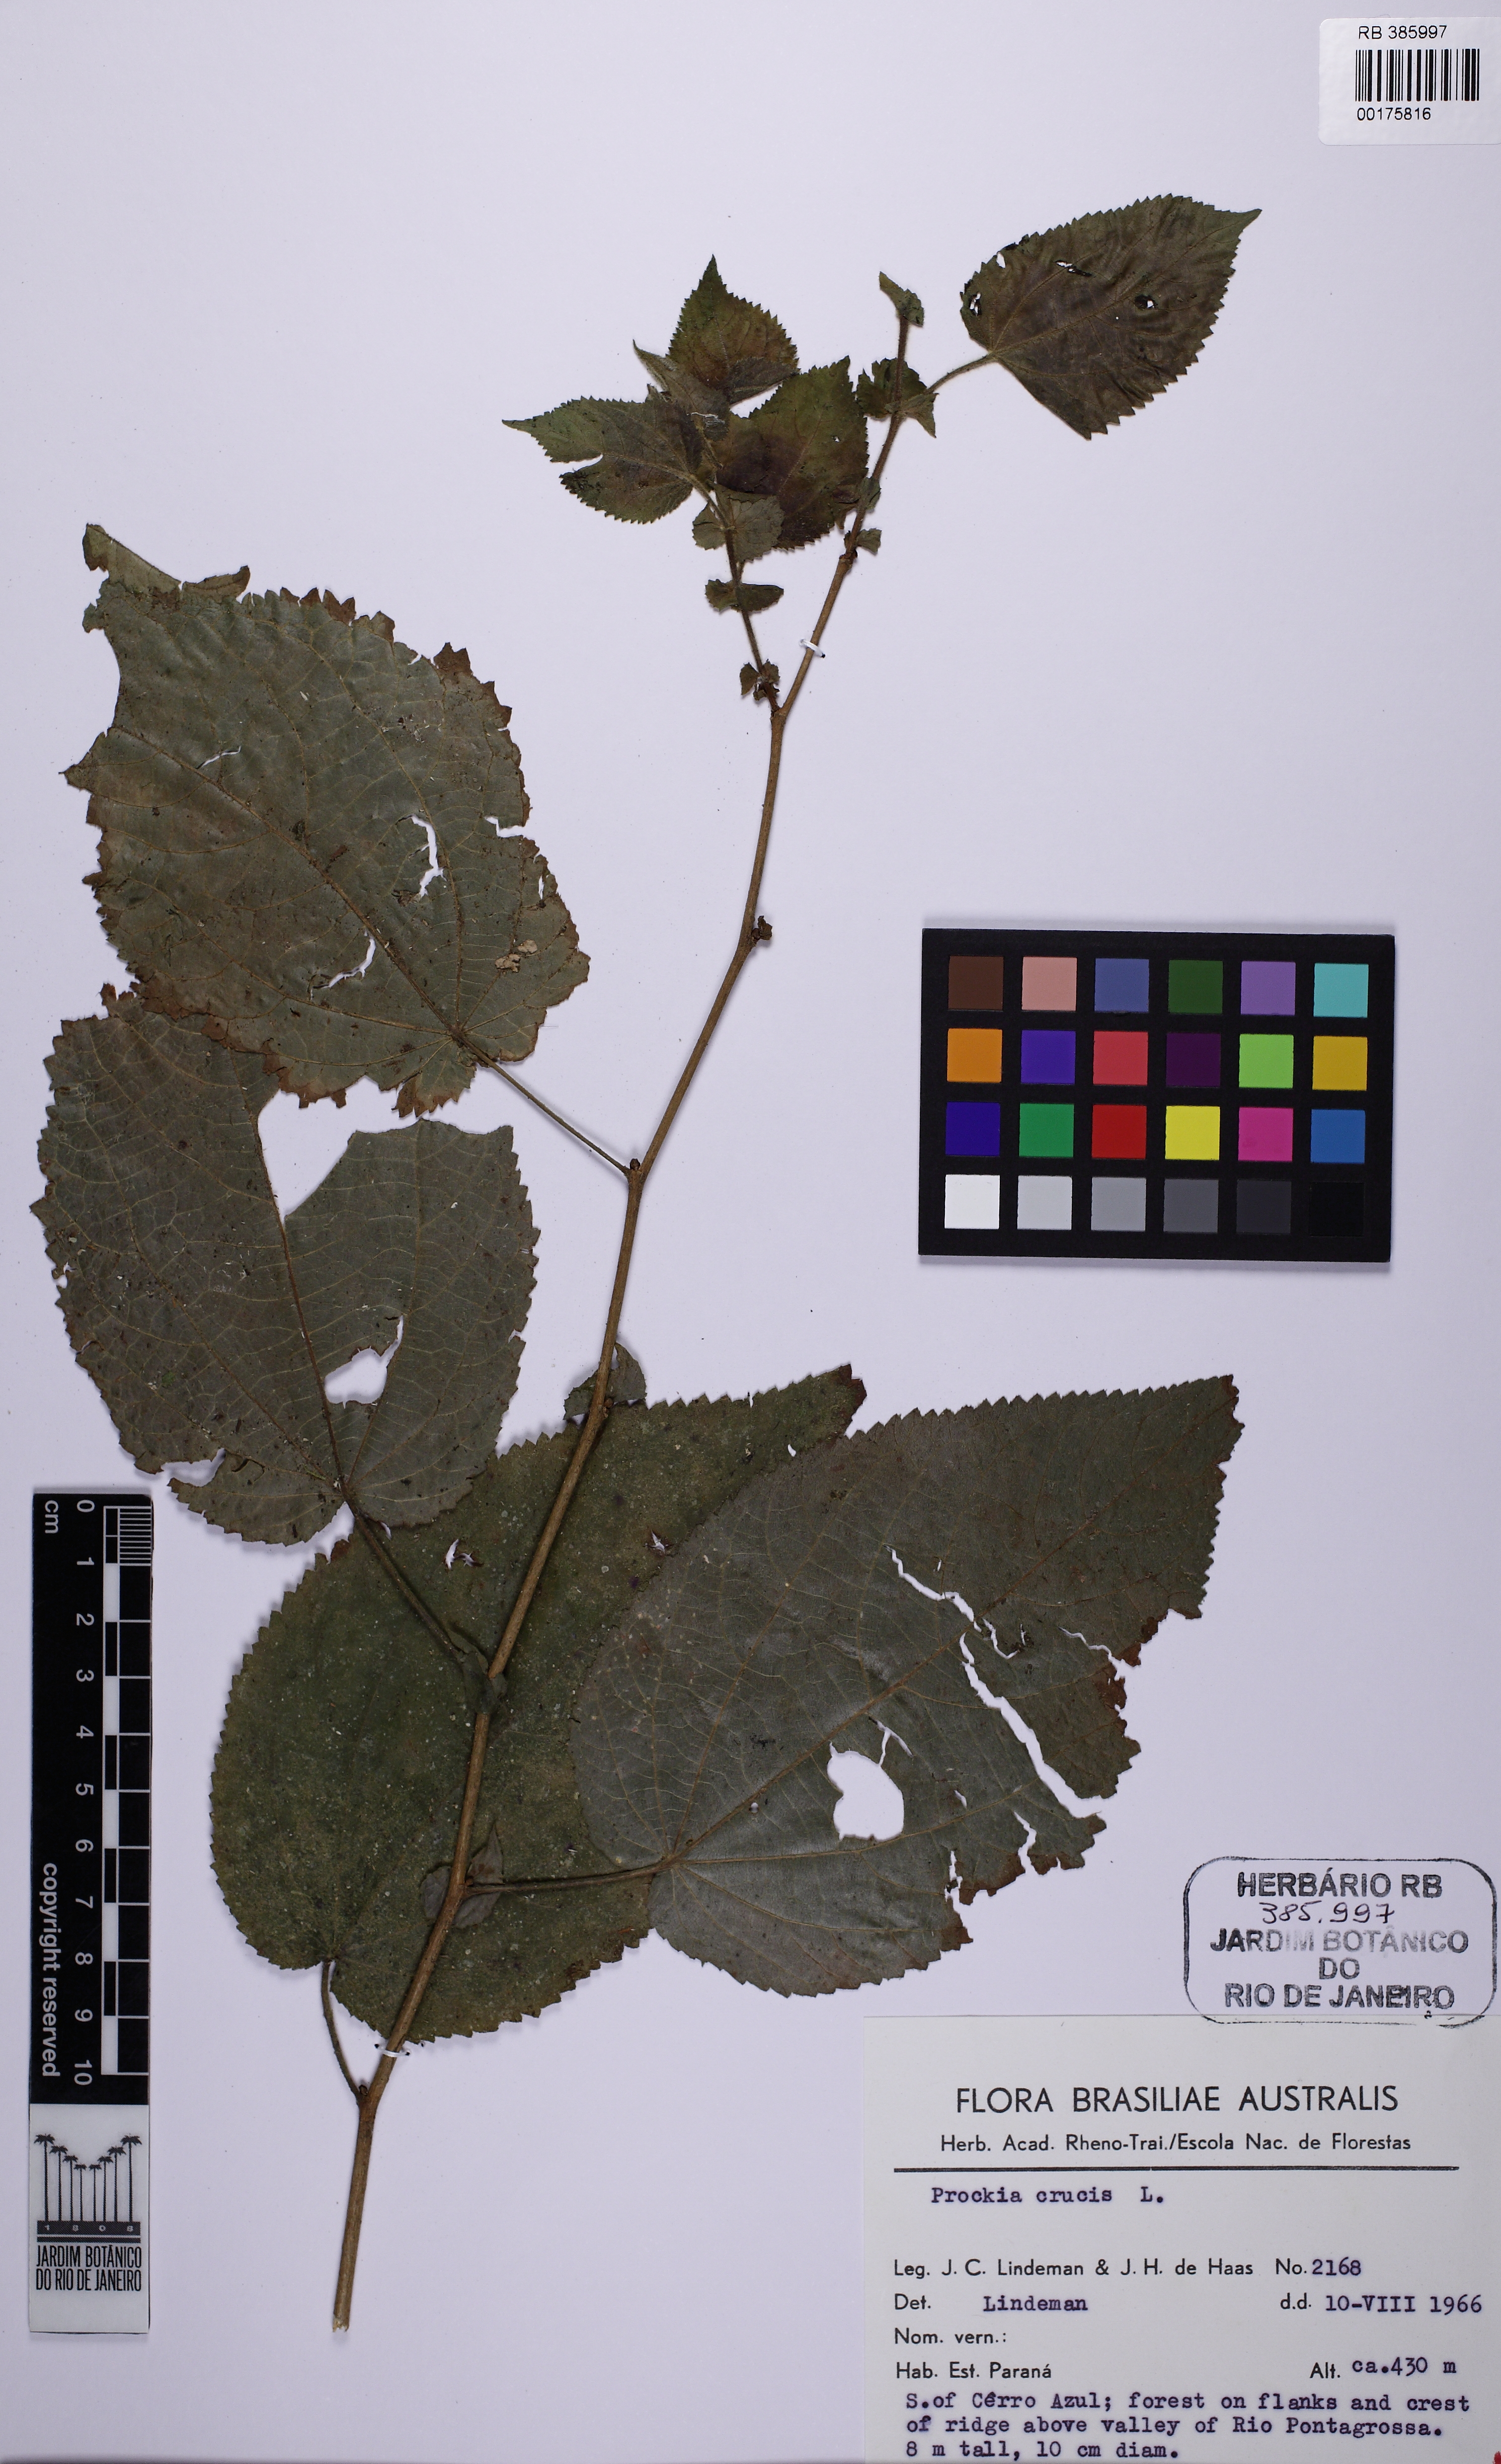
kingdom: Plantae
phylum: Tracheophyta
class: Magnoliopsida
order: Malpighiales
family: Salicaceae
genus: Prockia
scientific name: Prockia crucis
